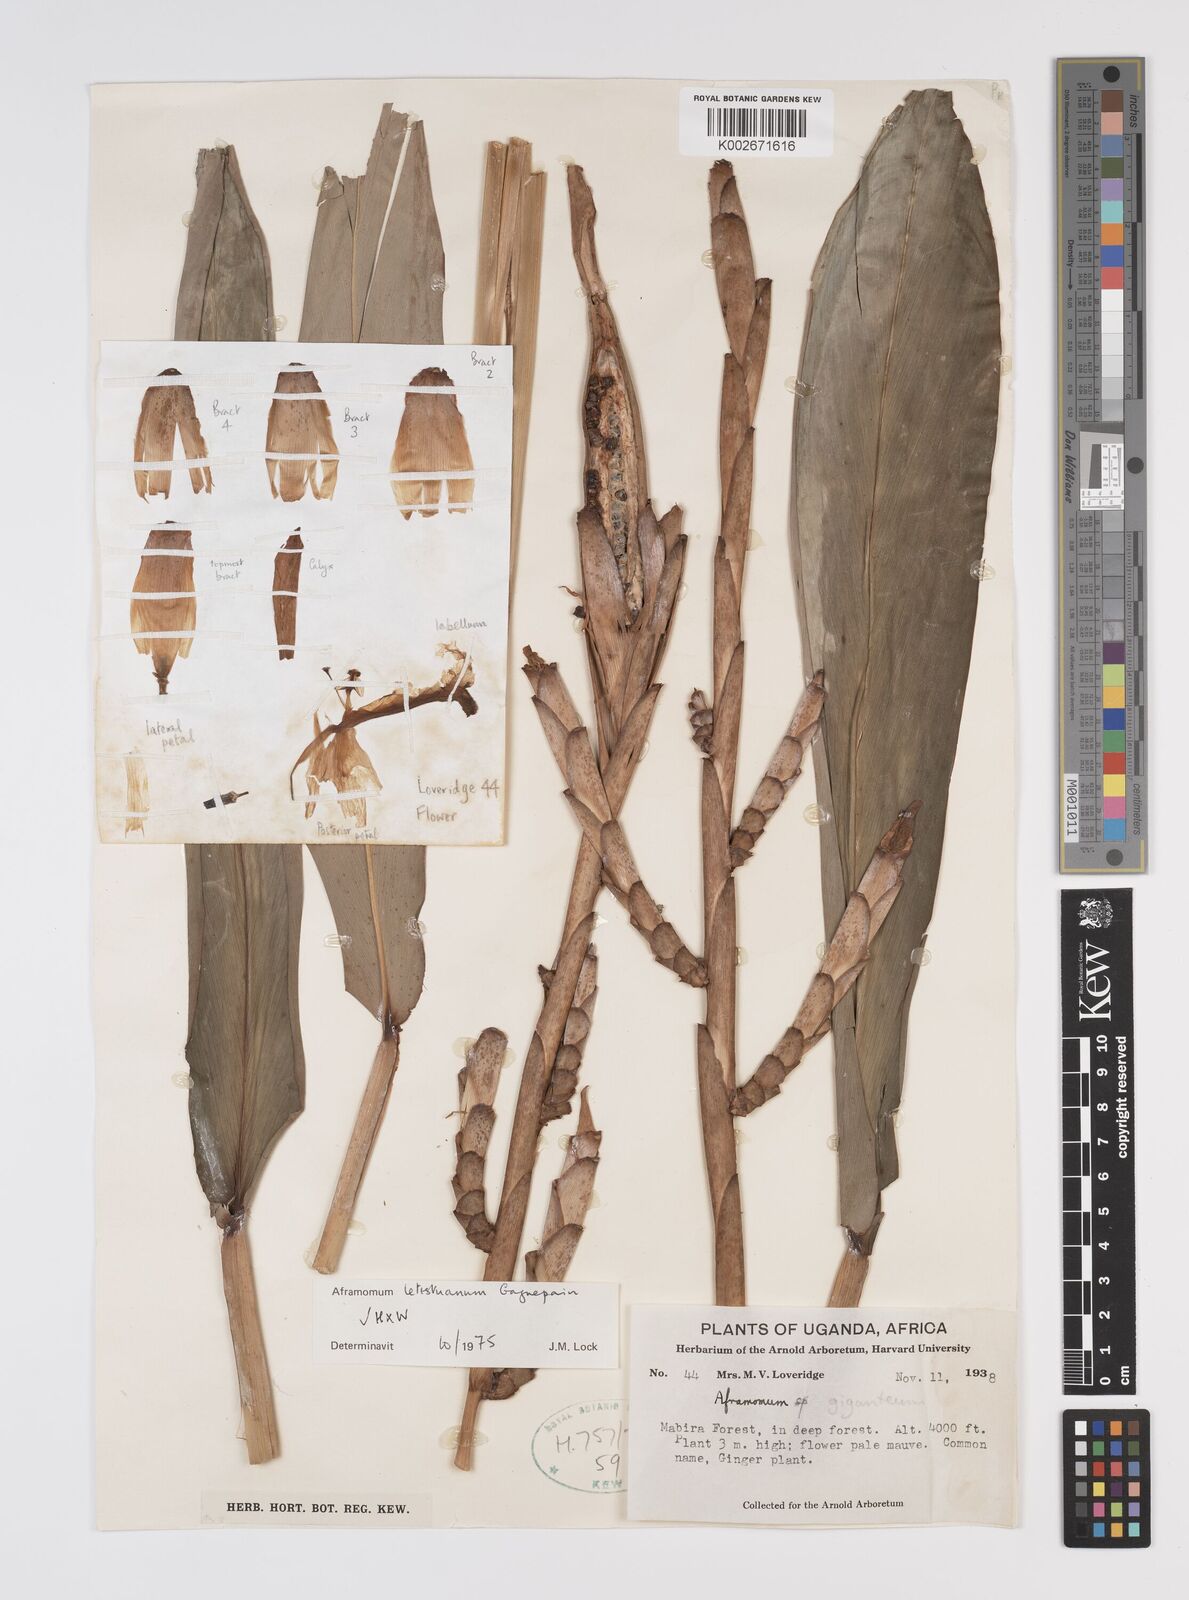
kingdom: Plantae
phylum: Tracheophyta
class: Liliopsida
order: Zingiberales
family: Zingiberaceae
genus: Aframomum
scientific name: Aframomum letestuanum
